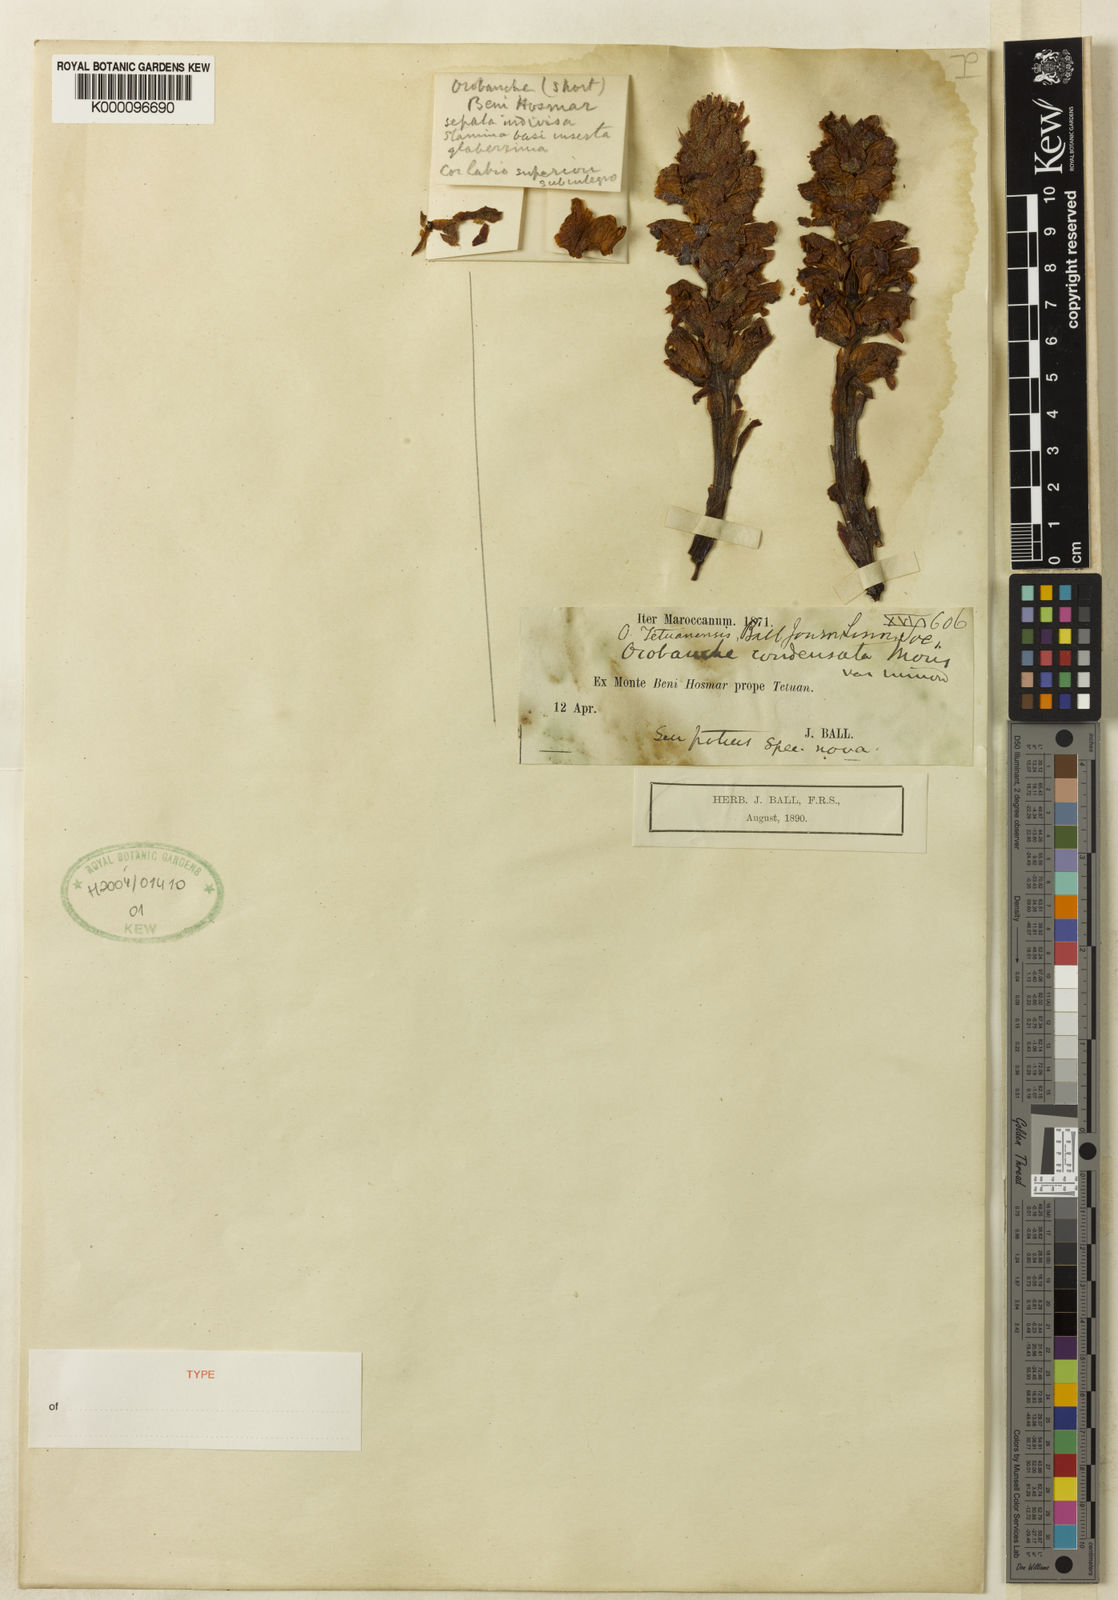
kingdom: Plantae
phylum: Tracheophyta
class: Magnoliopsida
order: Lamiales
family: Orobanchaceae
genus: Orobanche
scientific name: Orobanche tetuanensis
